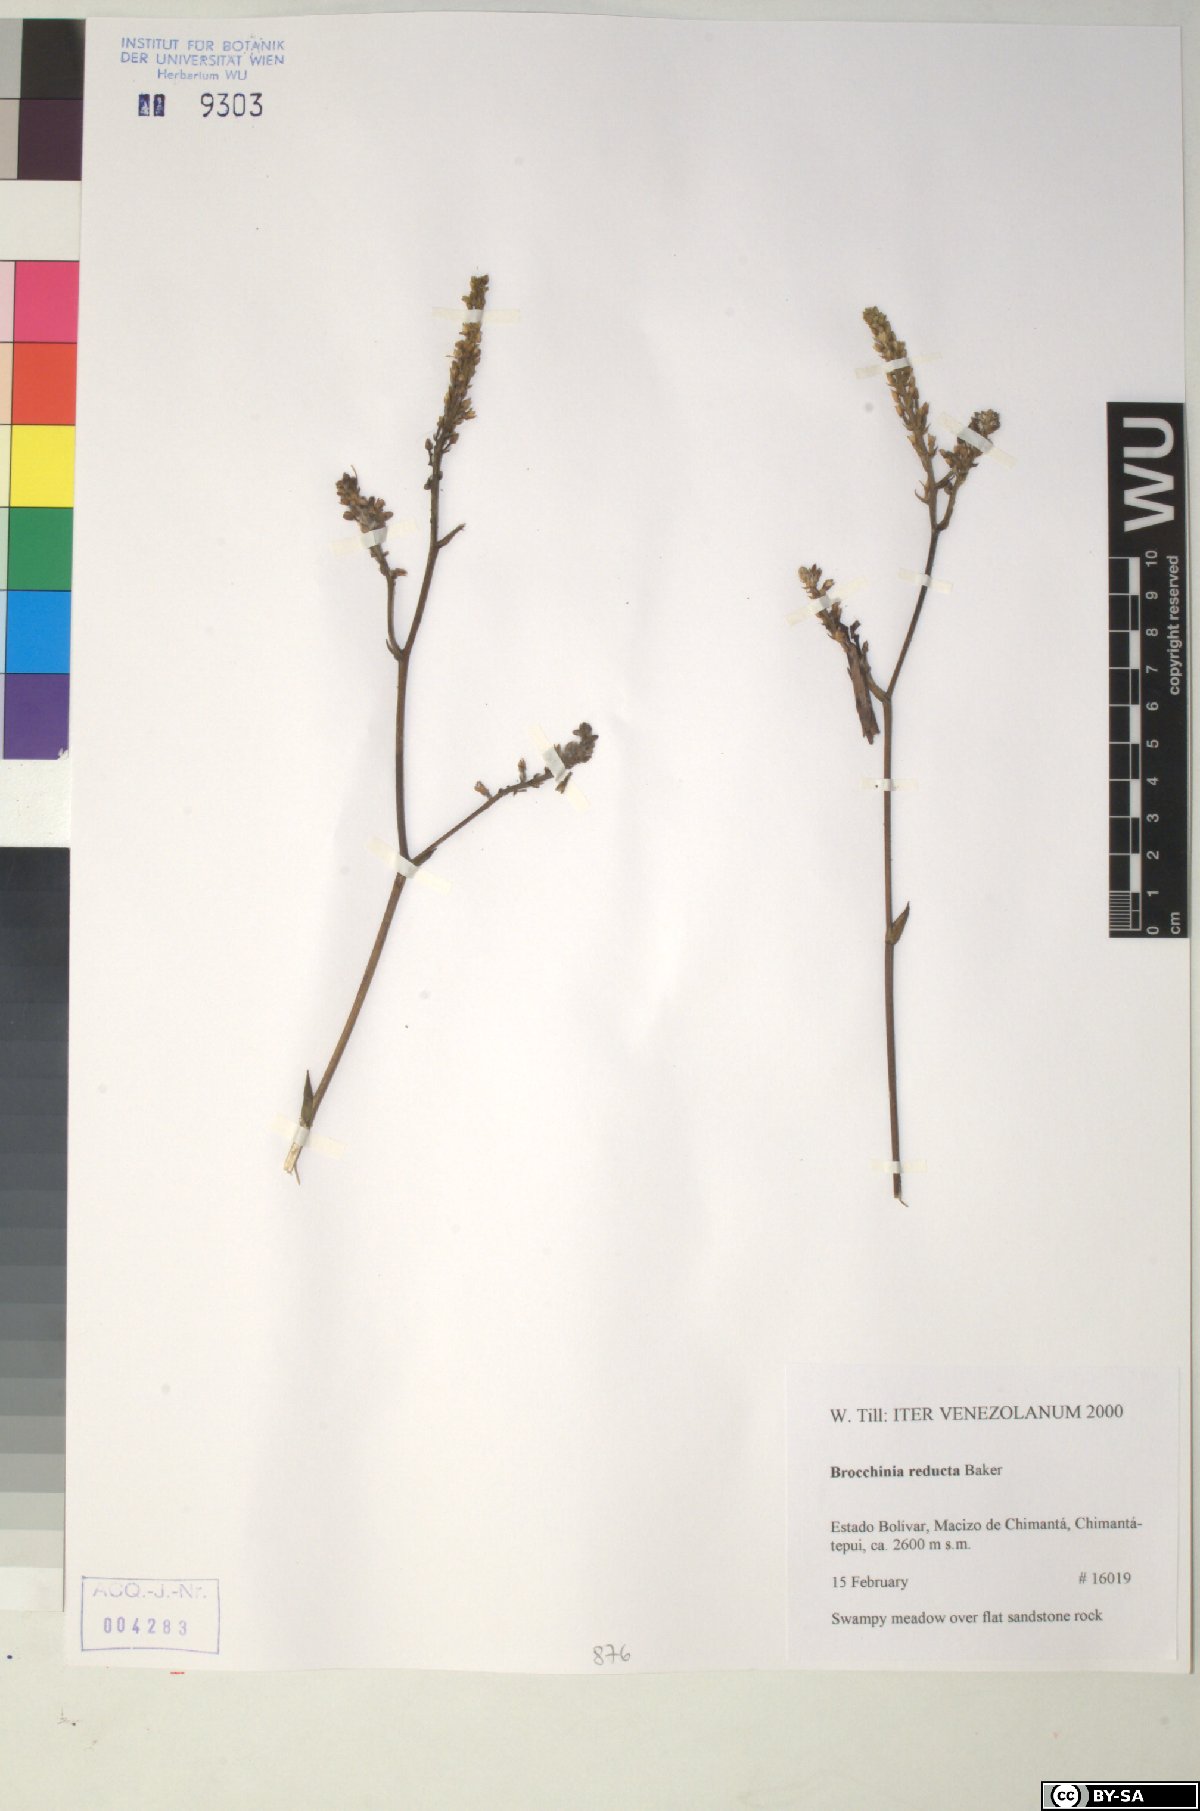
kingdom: Plantae
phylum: Tracheophyta
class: Liliopsida
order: Poales
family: Bromeliaceae
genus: Brocchinia
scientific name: Brocchinia reducta
